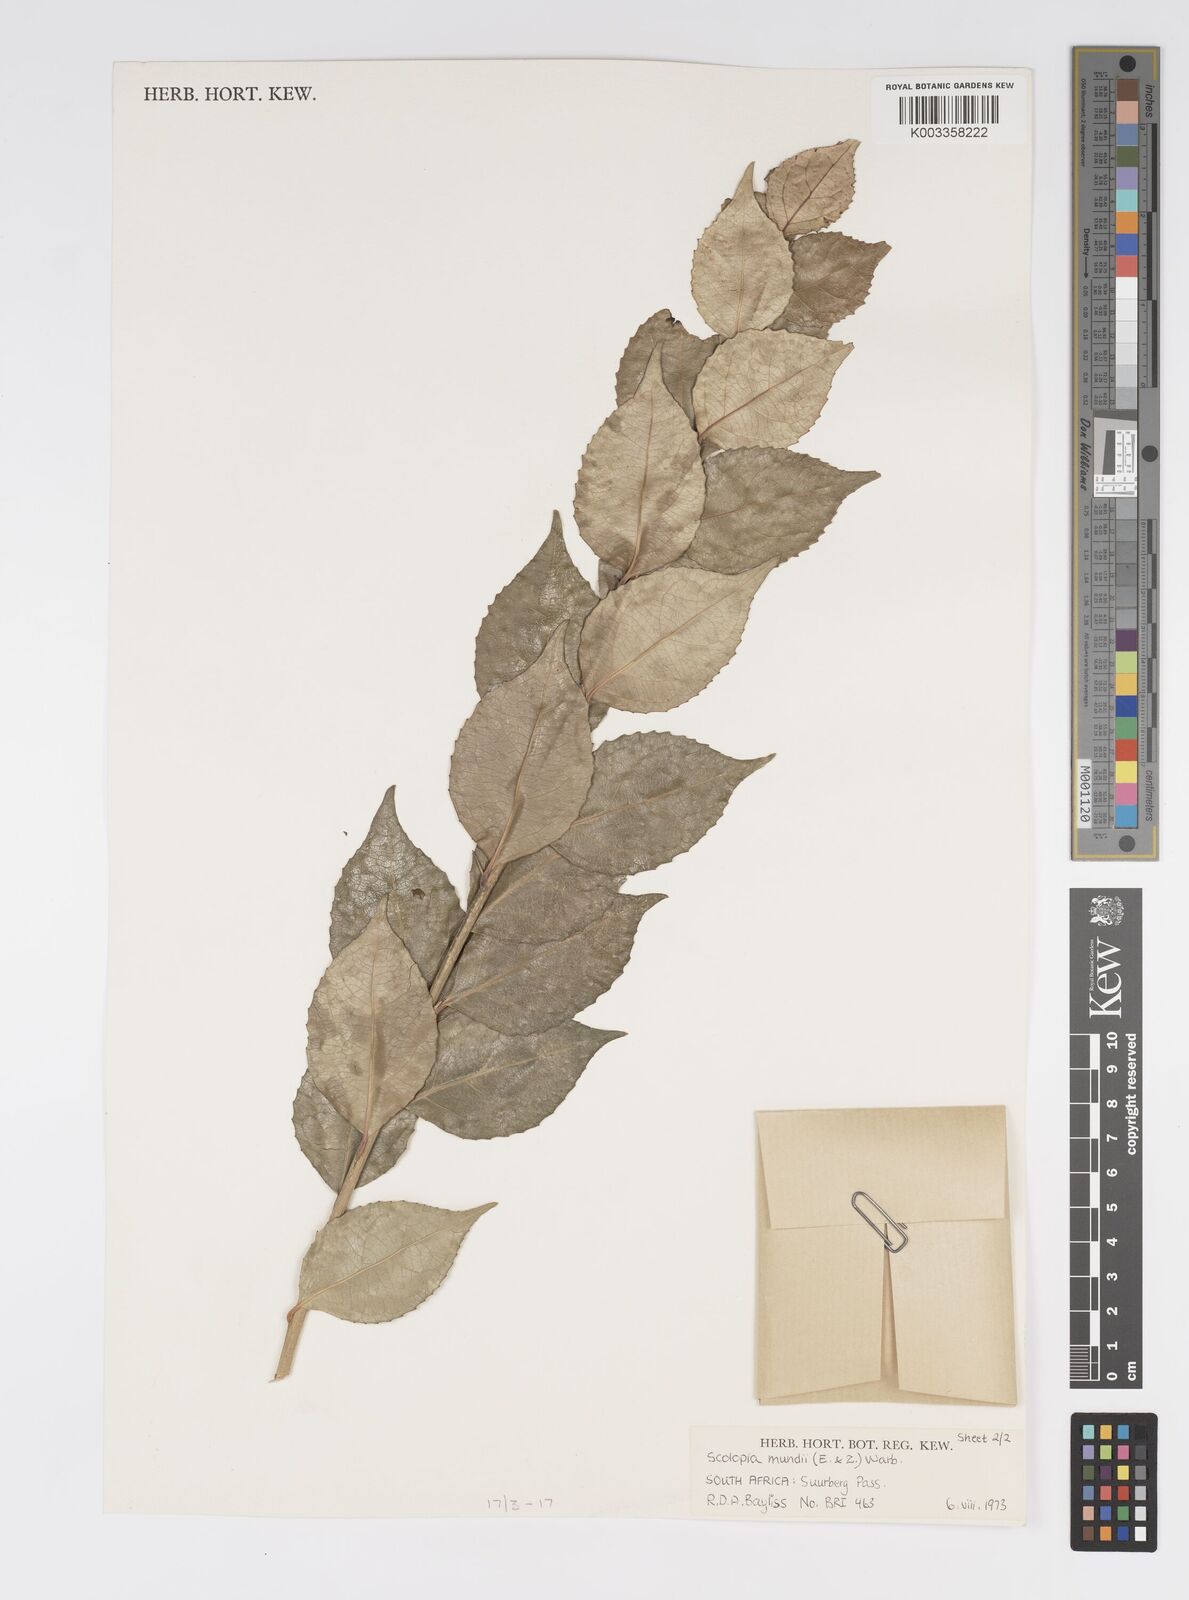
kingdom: Plantae
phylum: Tracheophyta
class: Magnoliopsida
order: Malpighiales
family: Salicaceae
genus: Scolopia
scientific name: Scolopia mundii
